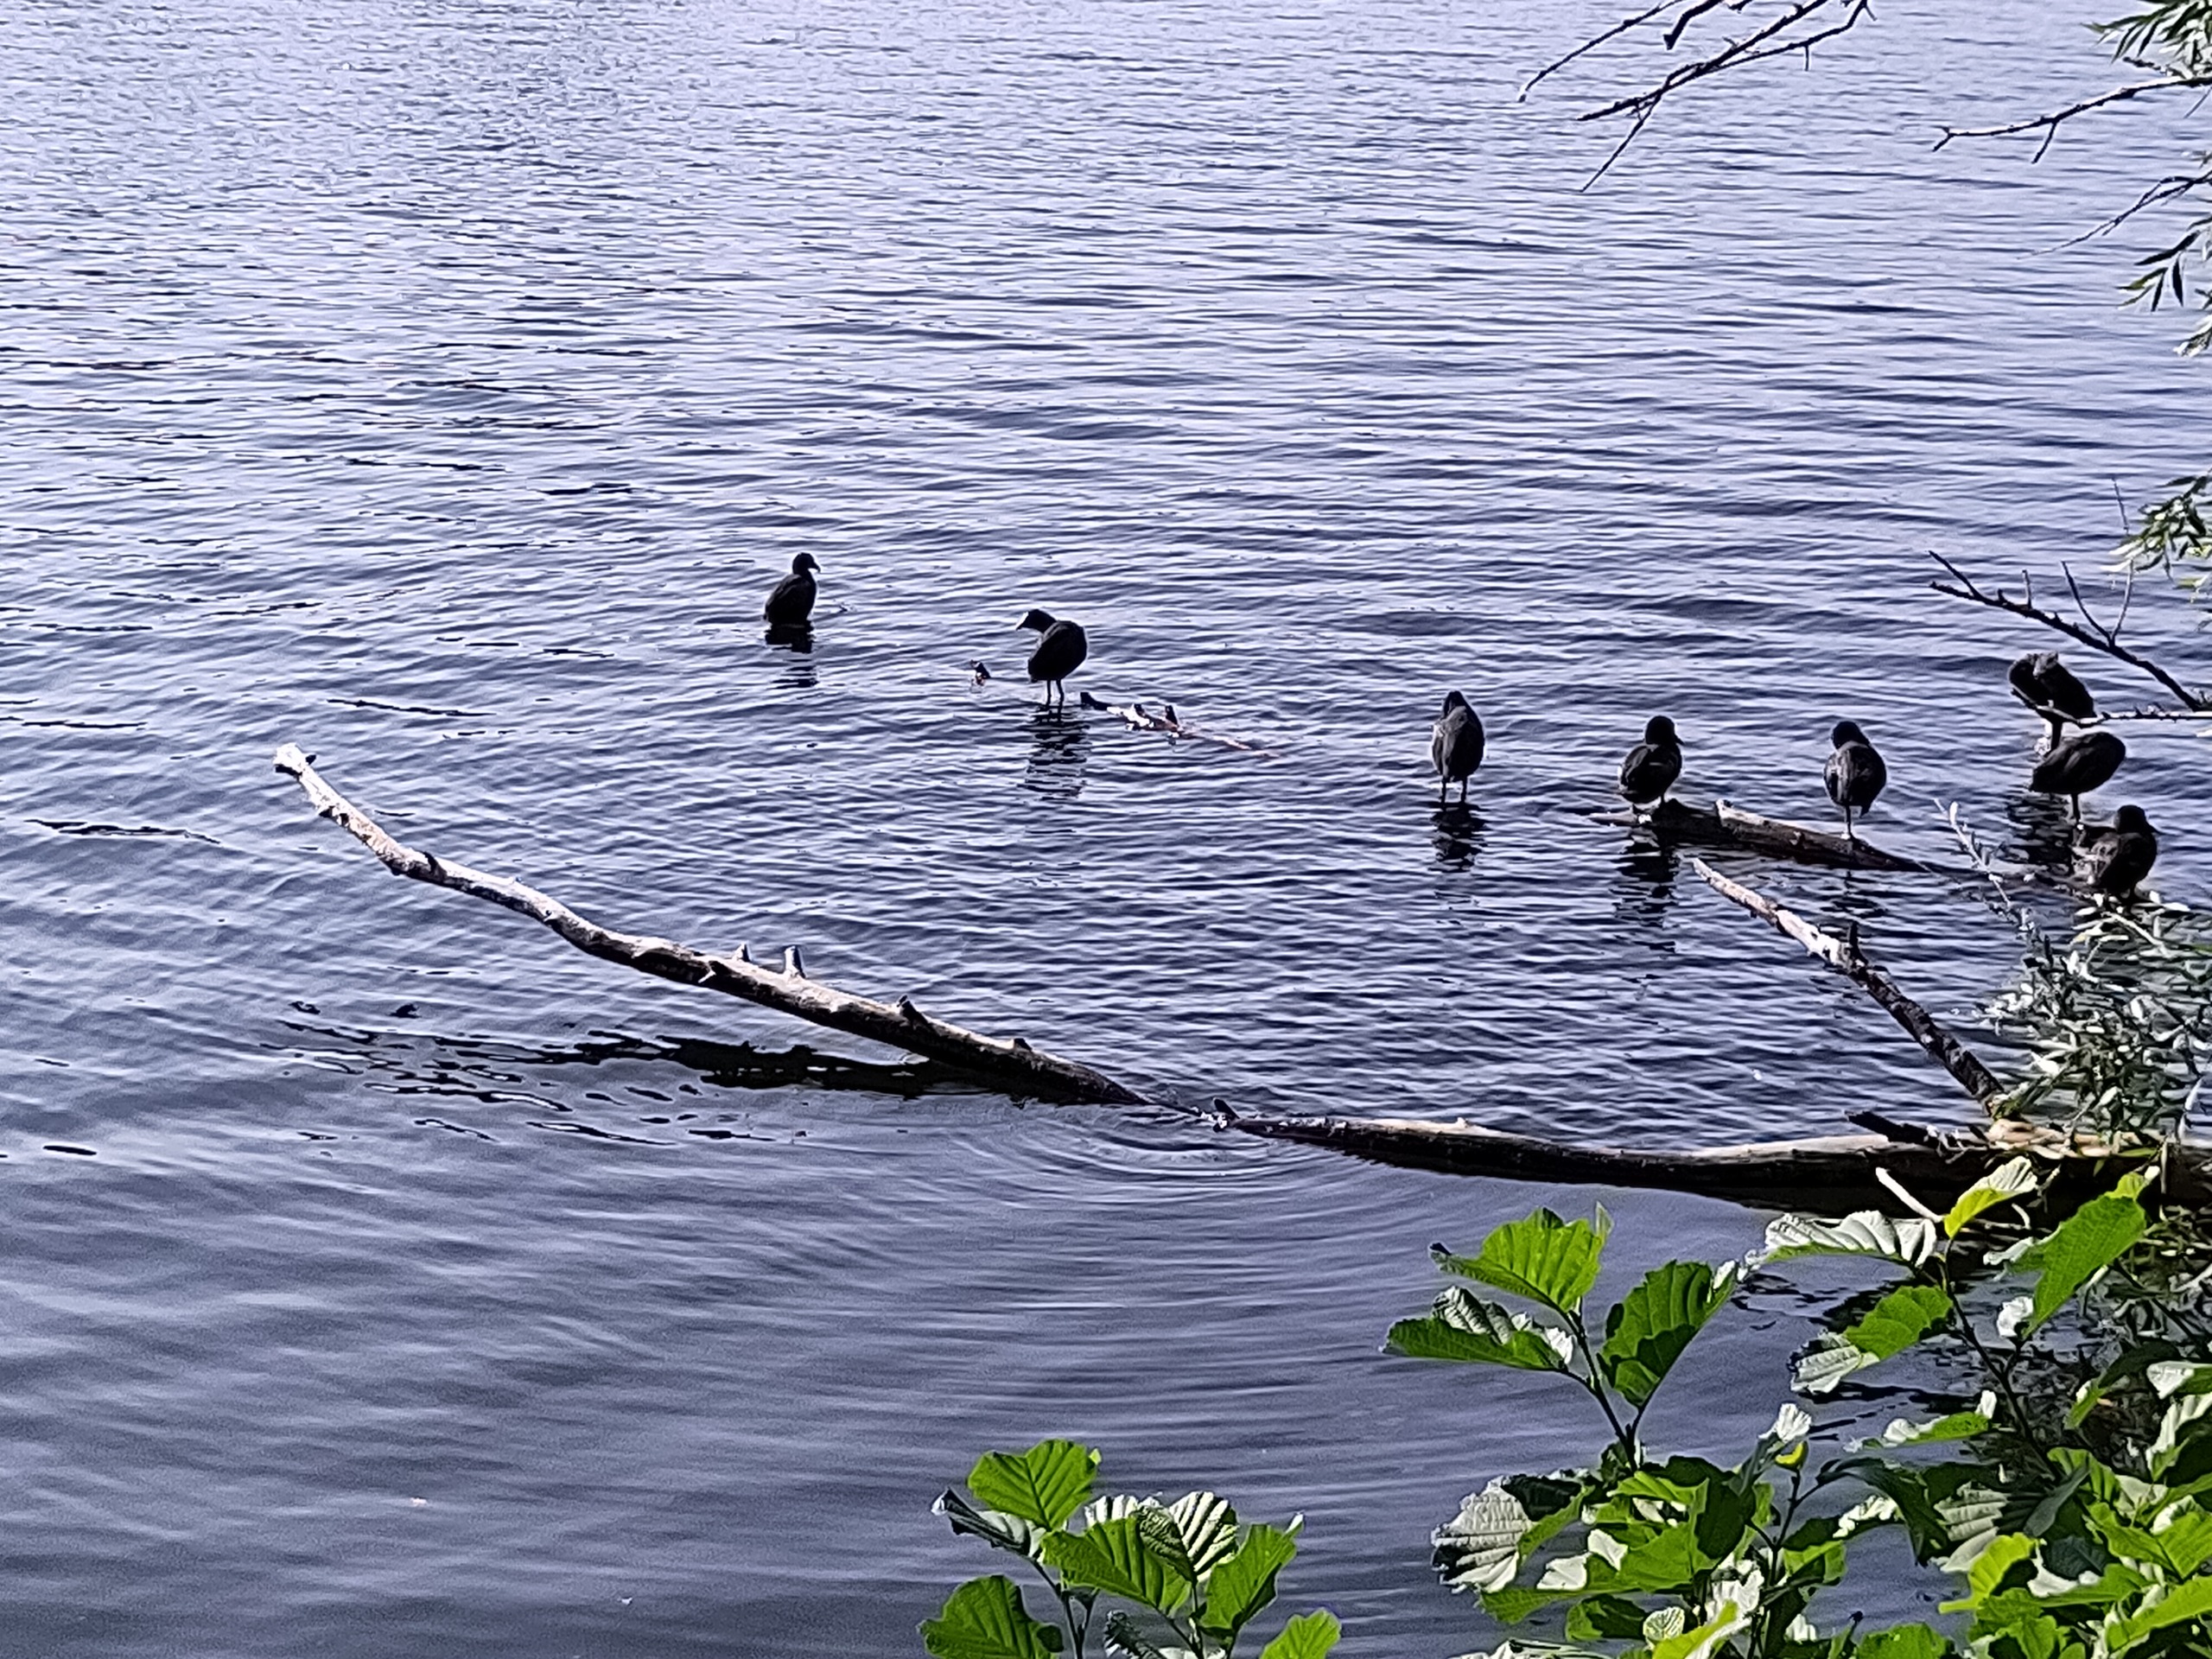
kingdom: Animalia
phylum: Chordata
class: Aves
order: Gruiformes
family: Rallidae
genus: Fulica
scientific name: Fulica atra
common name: Blishøne
